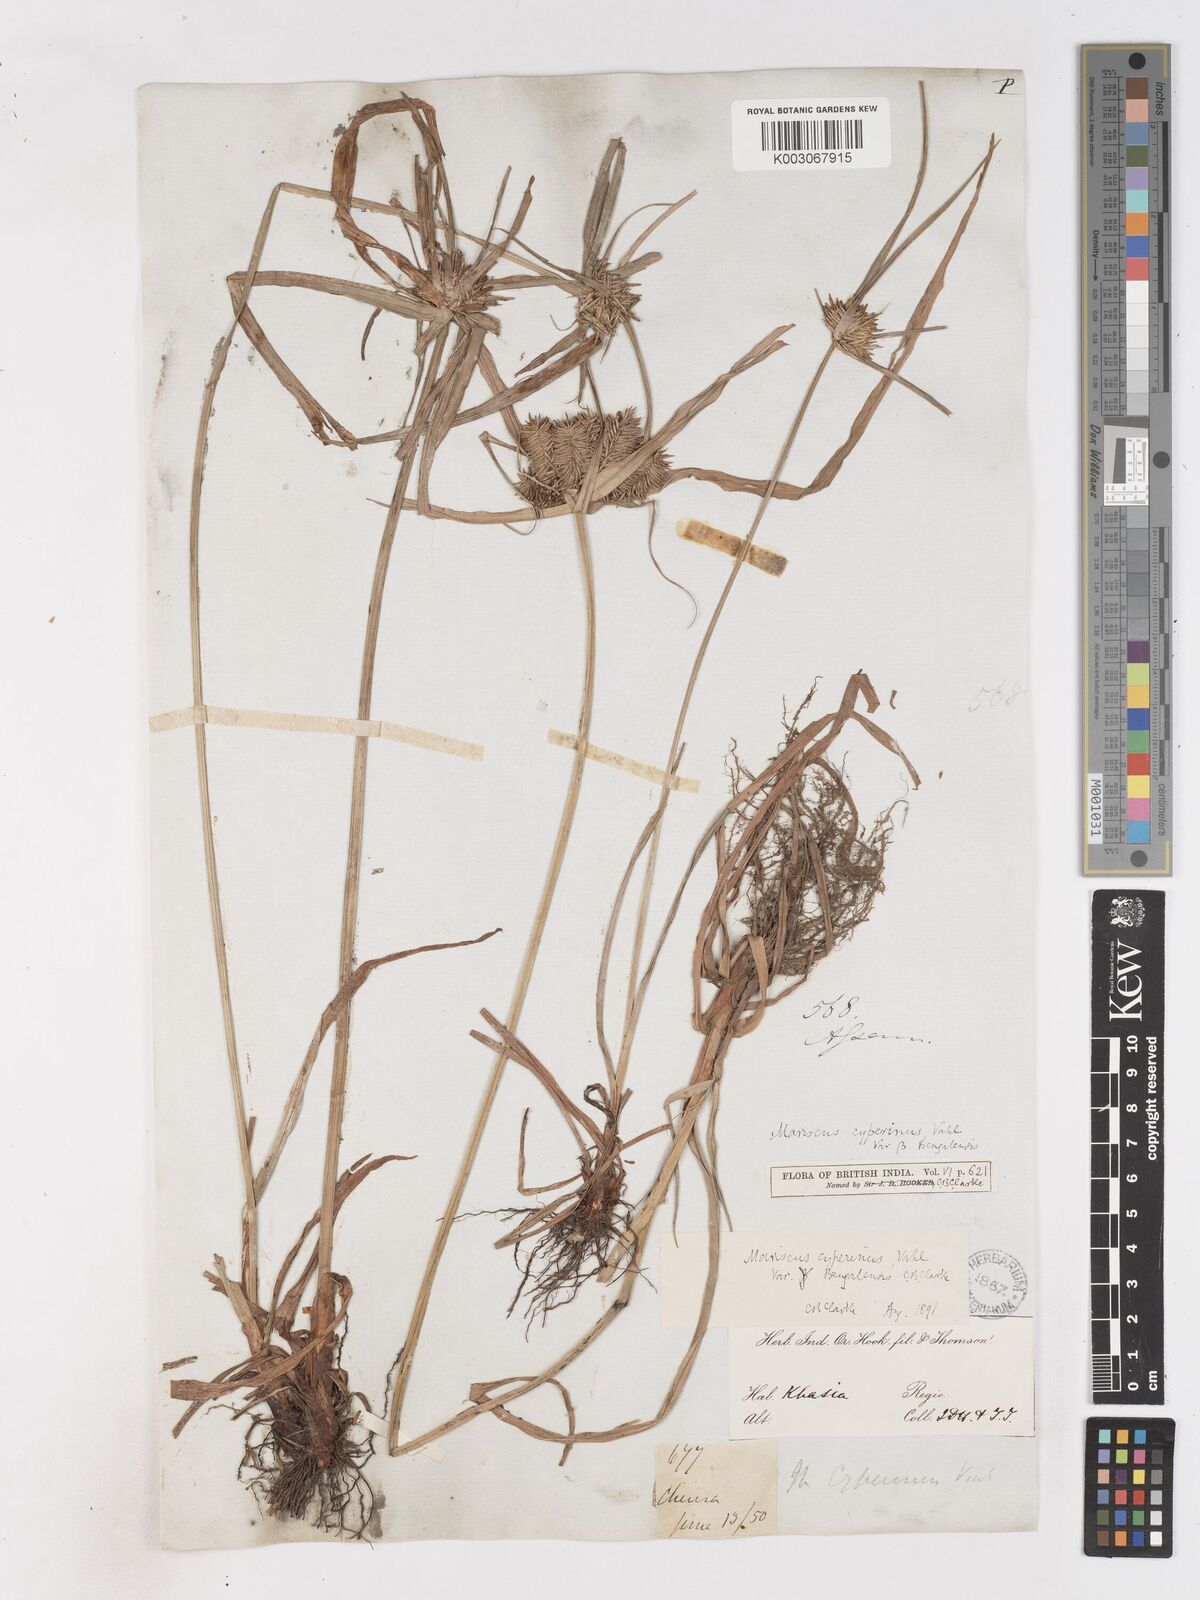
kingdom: Plantae
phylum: Tracheophyta
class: Liliopsida
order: Poales
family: Cyperaceae
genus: Cyperus
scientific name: Cyperus cyperinus
